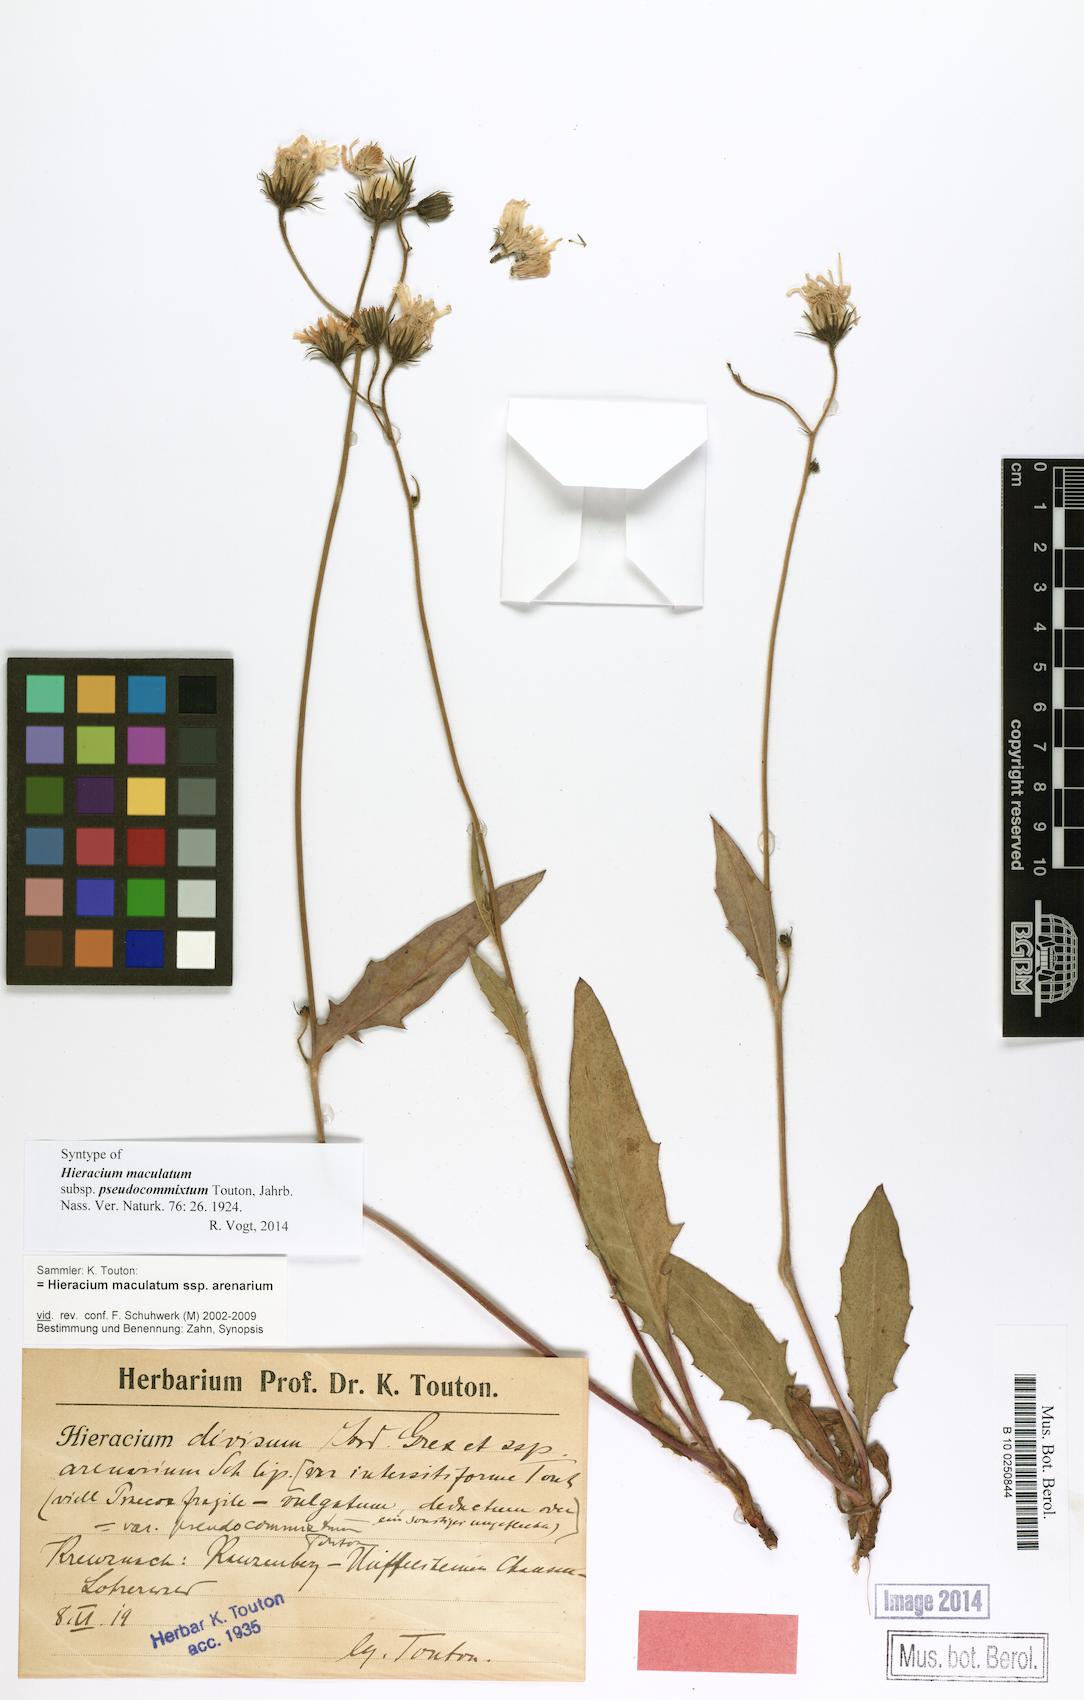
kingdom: Plantae
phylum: Tracheophyta
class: Magnoliopsida
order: Asterales
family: Asteraceae
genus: Hieracium
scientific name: Hieracium maculatum
